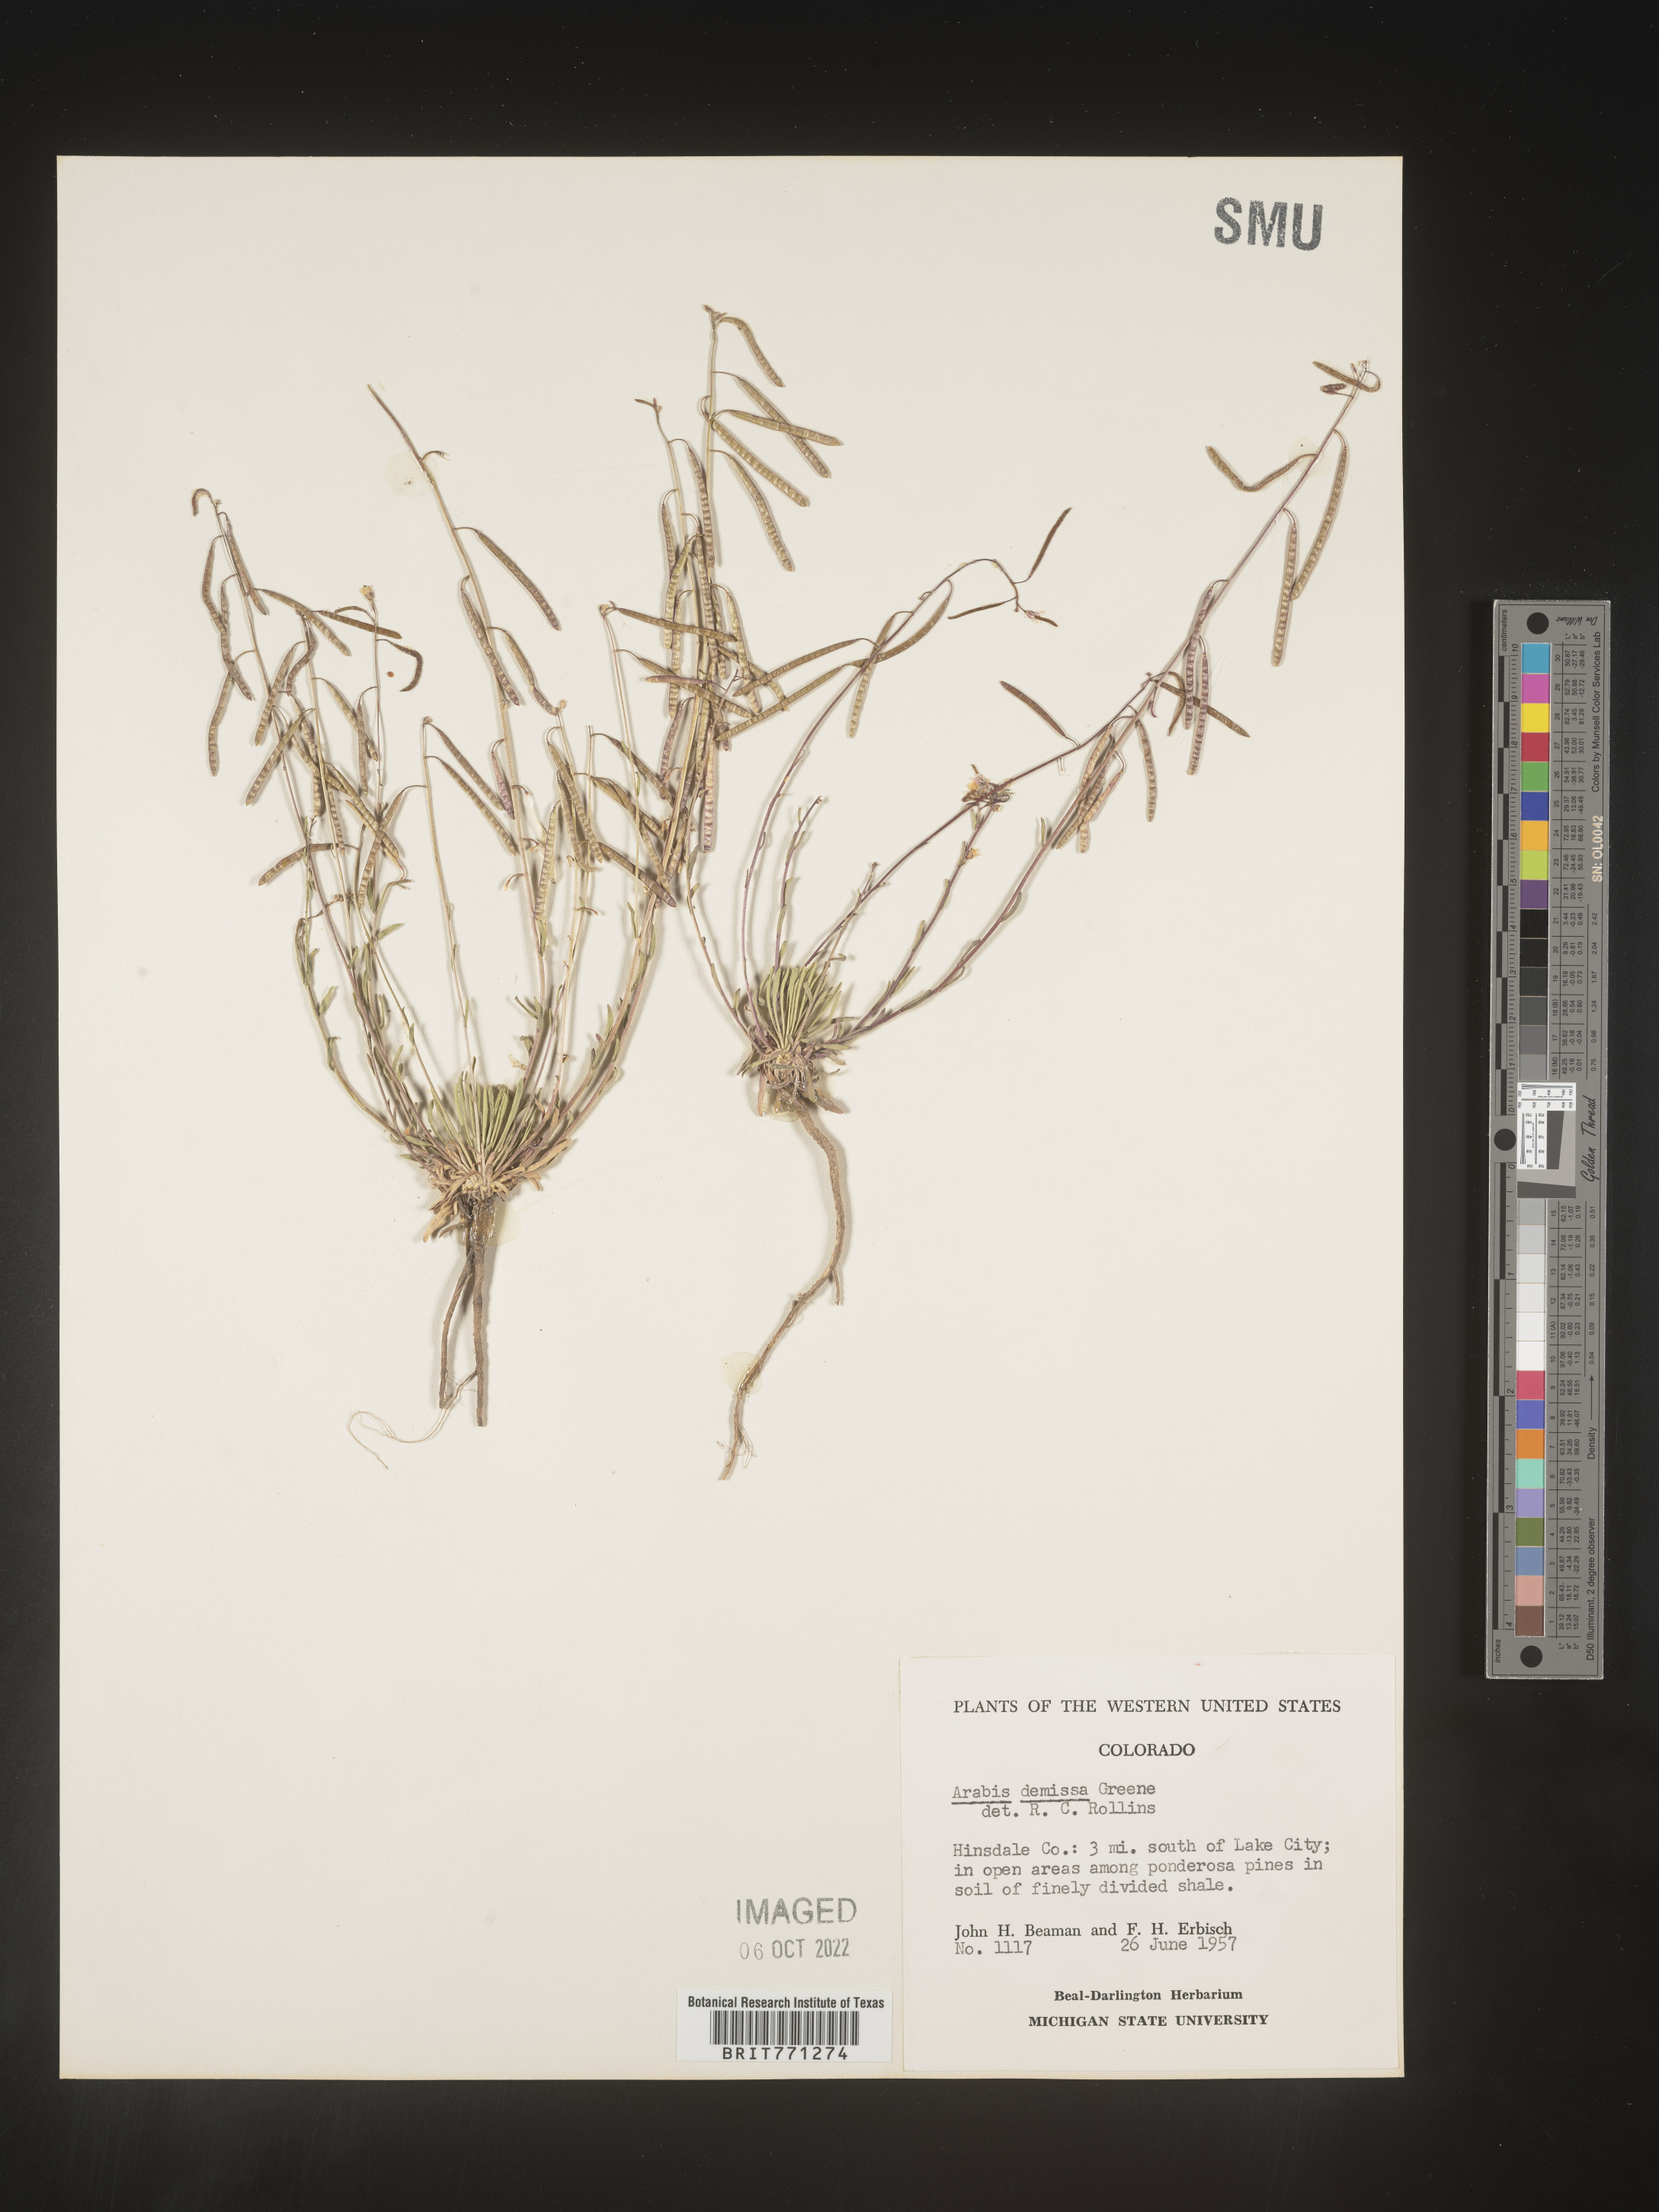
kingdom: Plantae
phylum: Tracheophyta
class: Magnoliopsida
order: Brassicales
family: Brassicaceae
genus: Arabis
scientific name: Arabis
